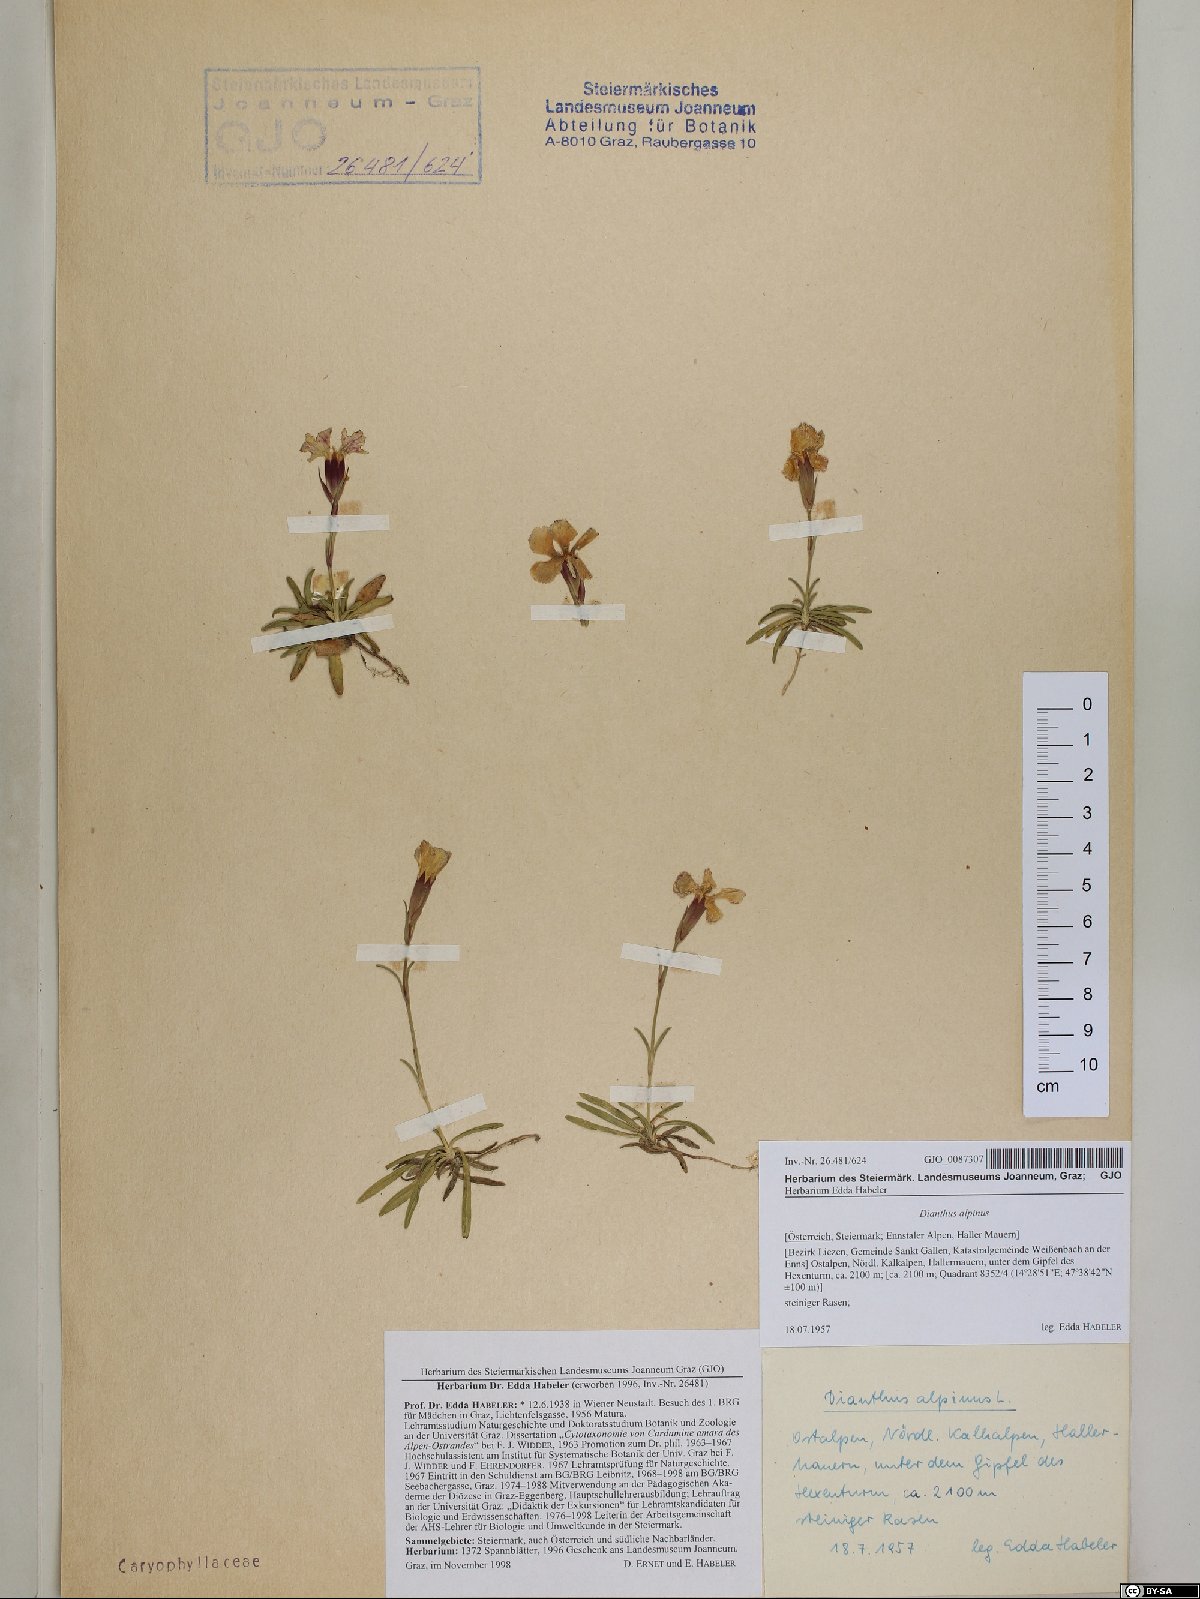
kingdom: Plantae
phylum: Tracheophyta
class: Magnoliopsida
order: Caryophyllales
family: Caryophyllaceae
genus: Dianthus
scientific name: Dianthus alpinus
